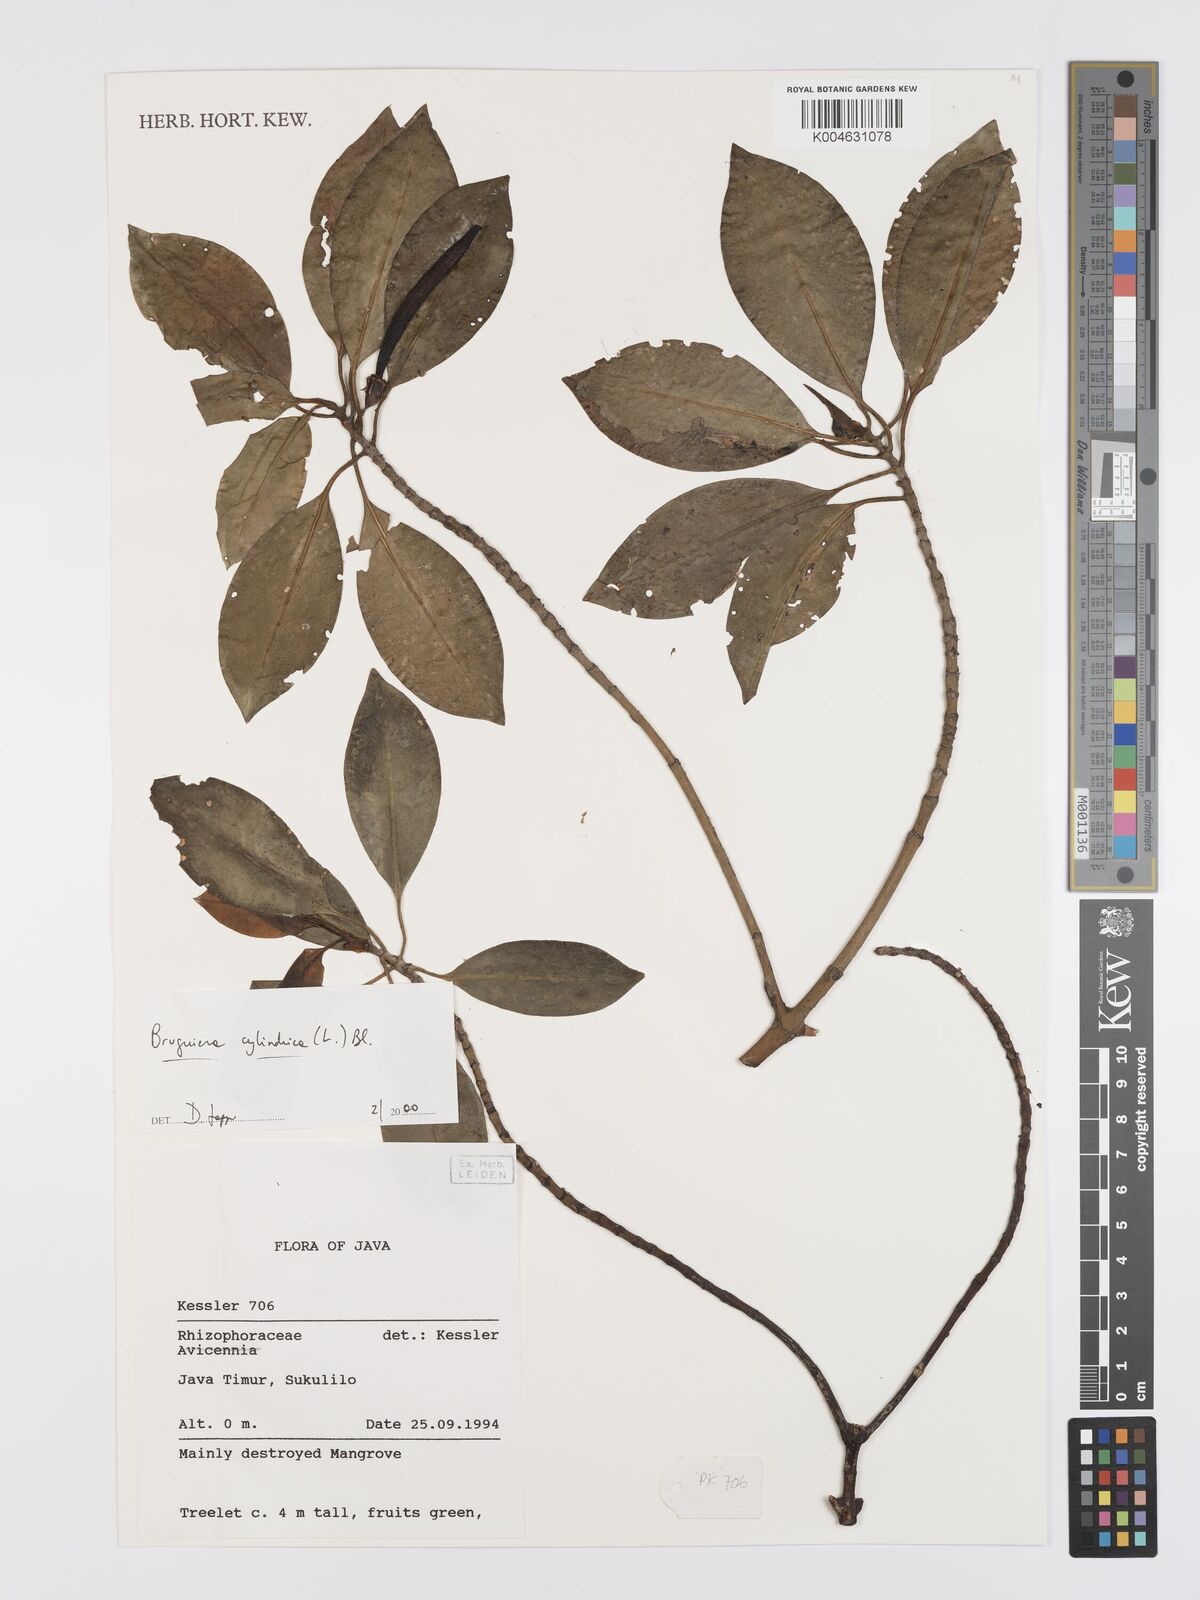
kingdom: Plantae
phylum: Tracheophyta
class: Magnoliopsida
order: Malpighiales
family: Rhizophoraceae
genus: Bruguiera
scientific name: Bruguiera cylindrica
